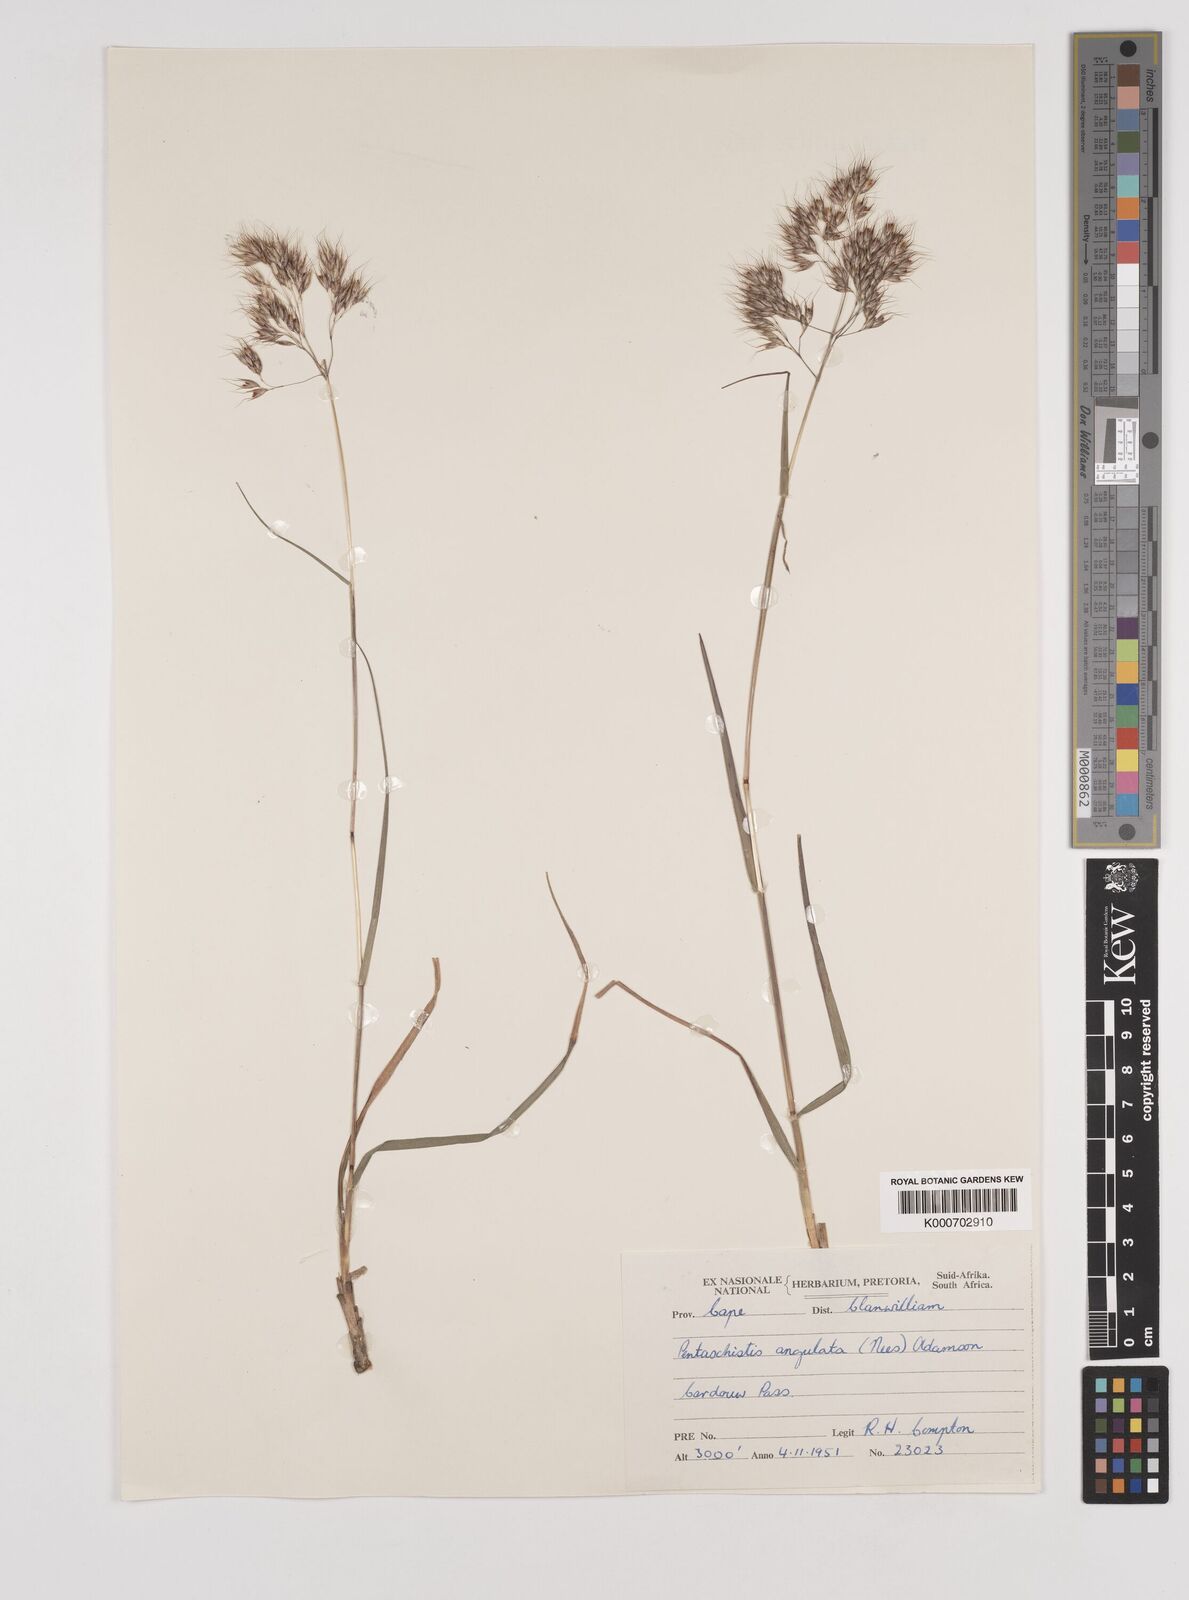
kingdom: Plantae
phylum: Tracheophyta
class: Liliopsida
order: Poales
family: Poaceae
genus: Pentameris
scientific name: Pentameris barbata
